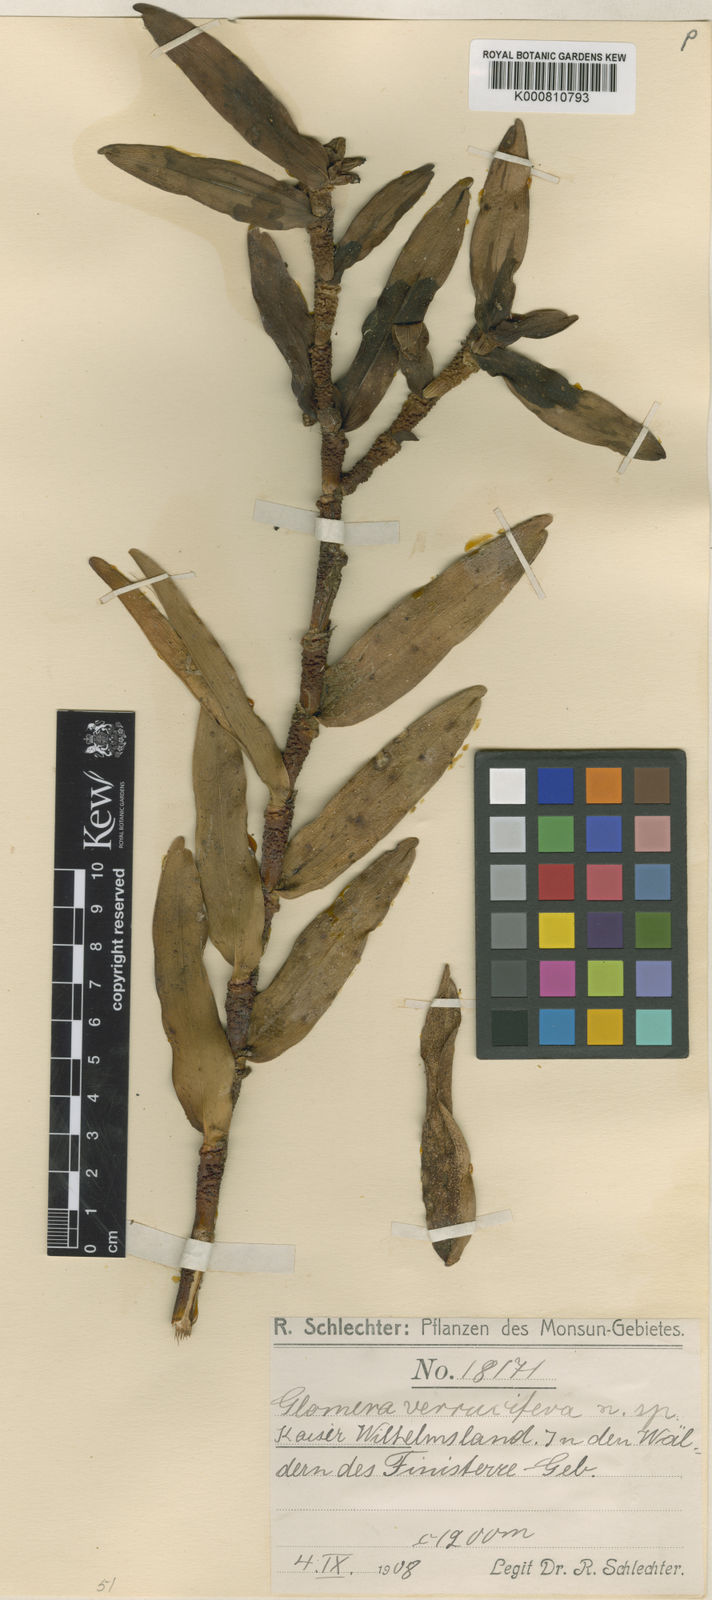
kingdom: Plantae
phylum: Tracheophyta
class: Liliopsida
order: Asparagales
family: Orchidaceae
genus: Glomera
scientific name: Glomera verrucifera
